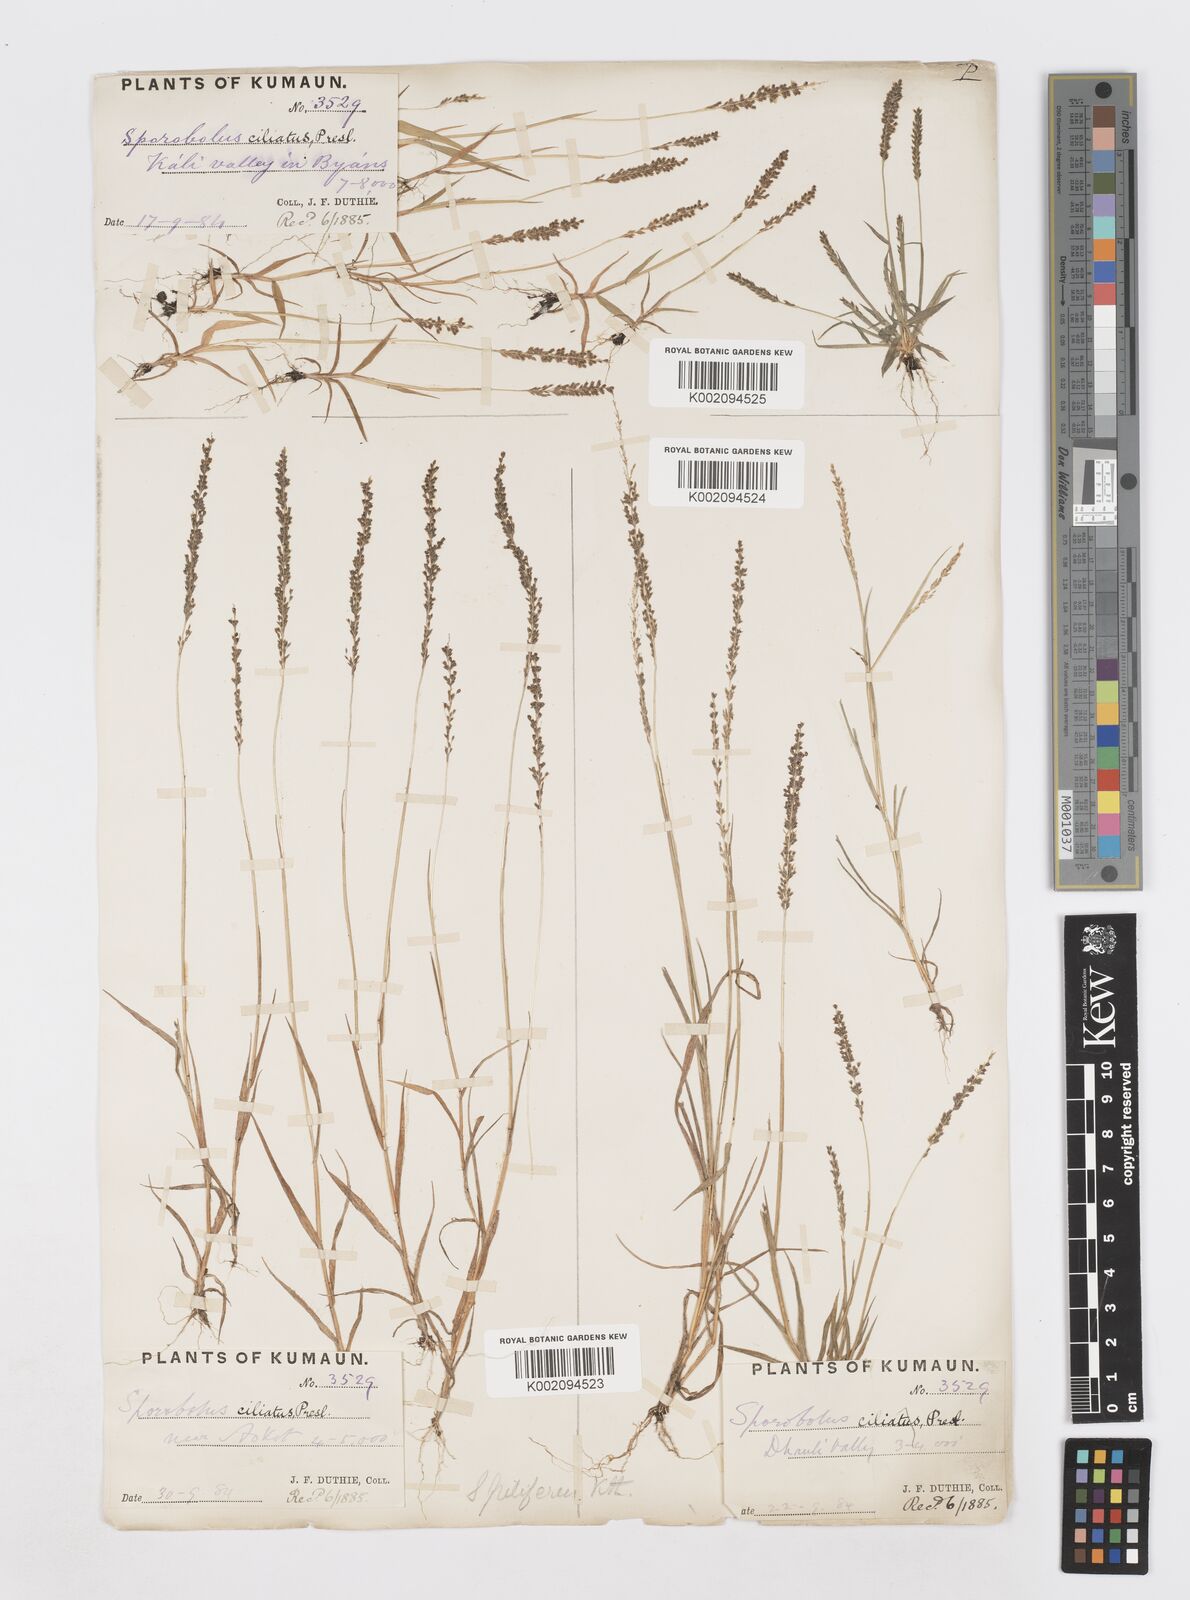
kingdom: Plantae
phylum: Tracheophyta
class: Liliopsida
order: Poales
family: Poaceae
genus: Sporobolus
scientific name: Sporobolus pilifer
